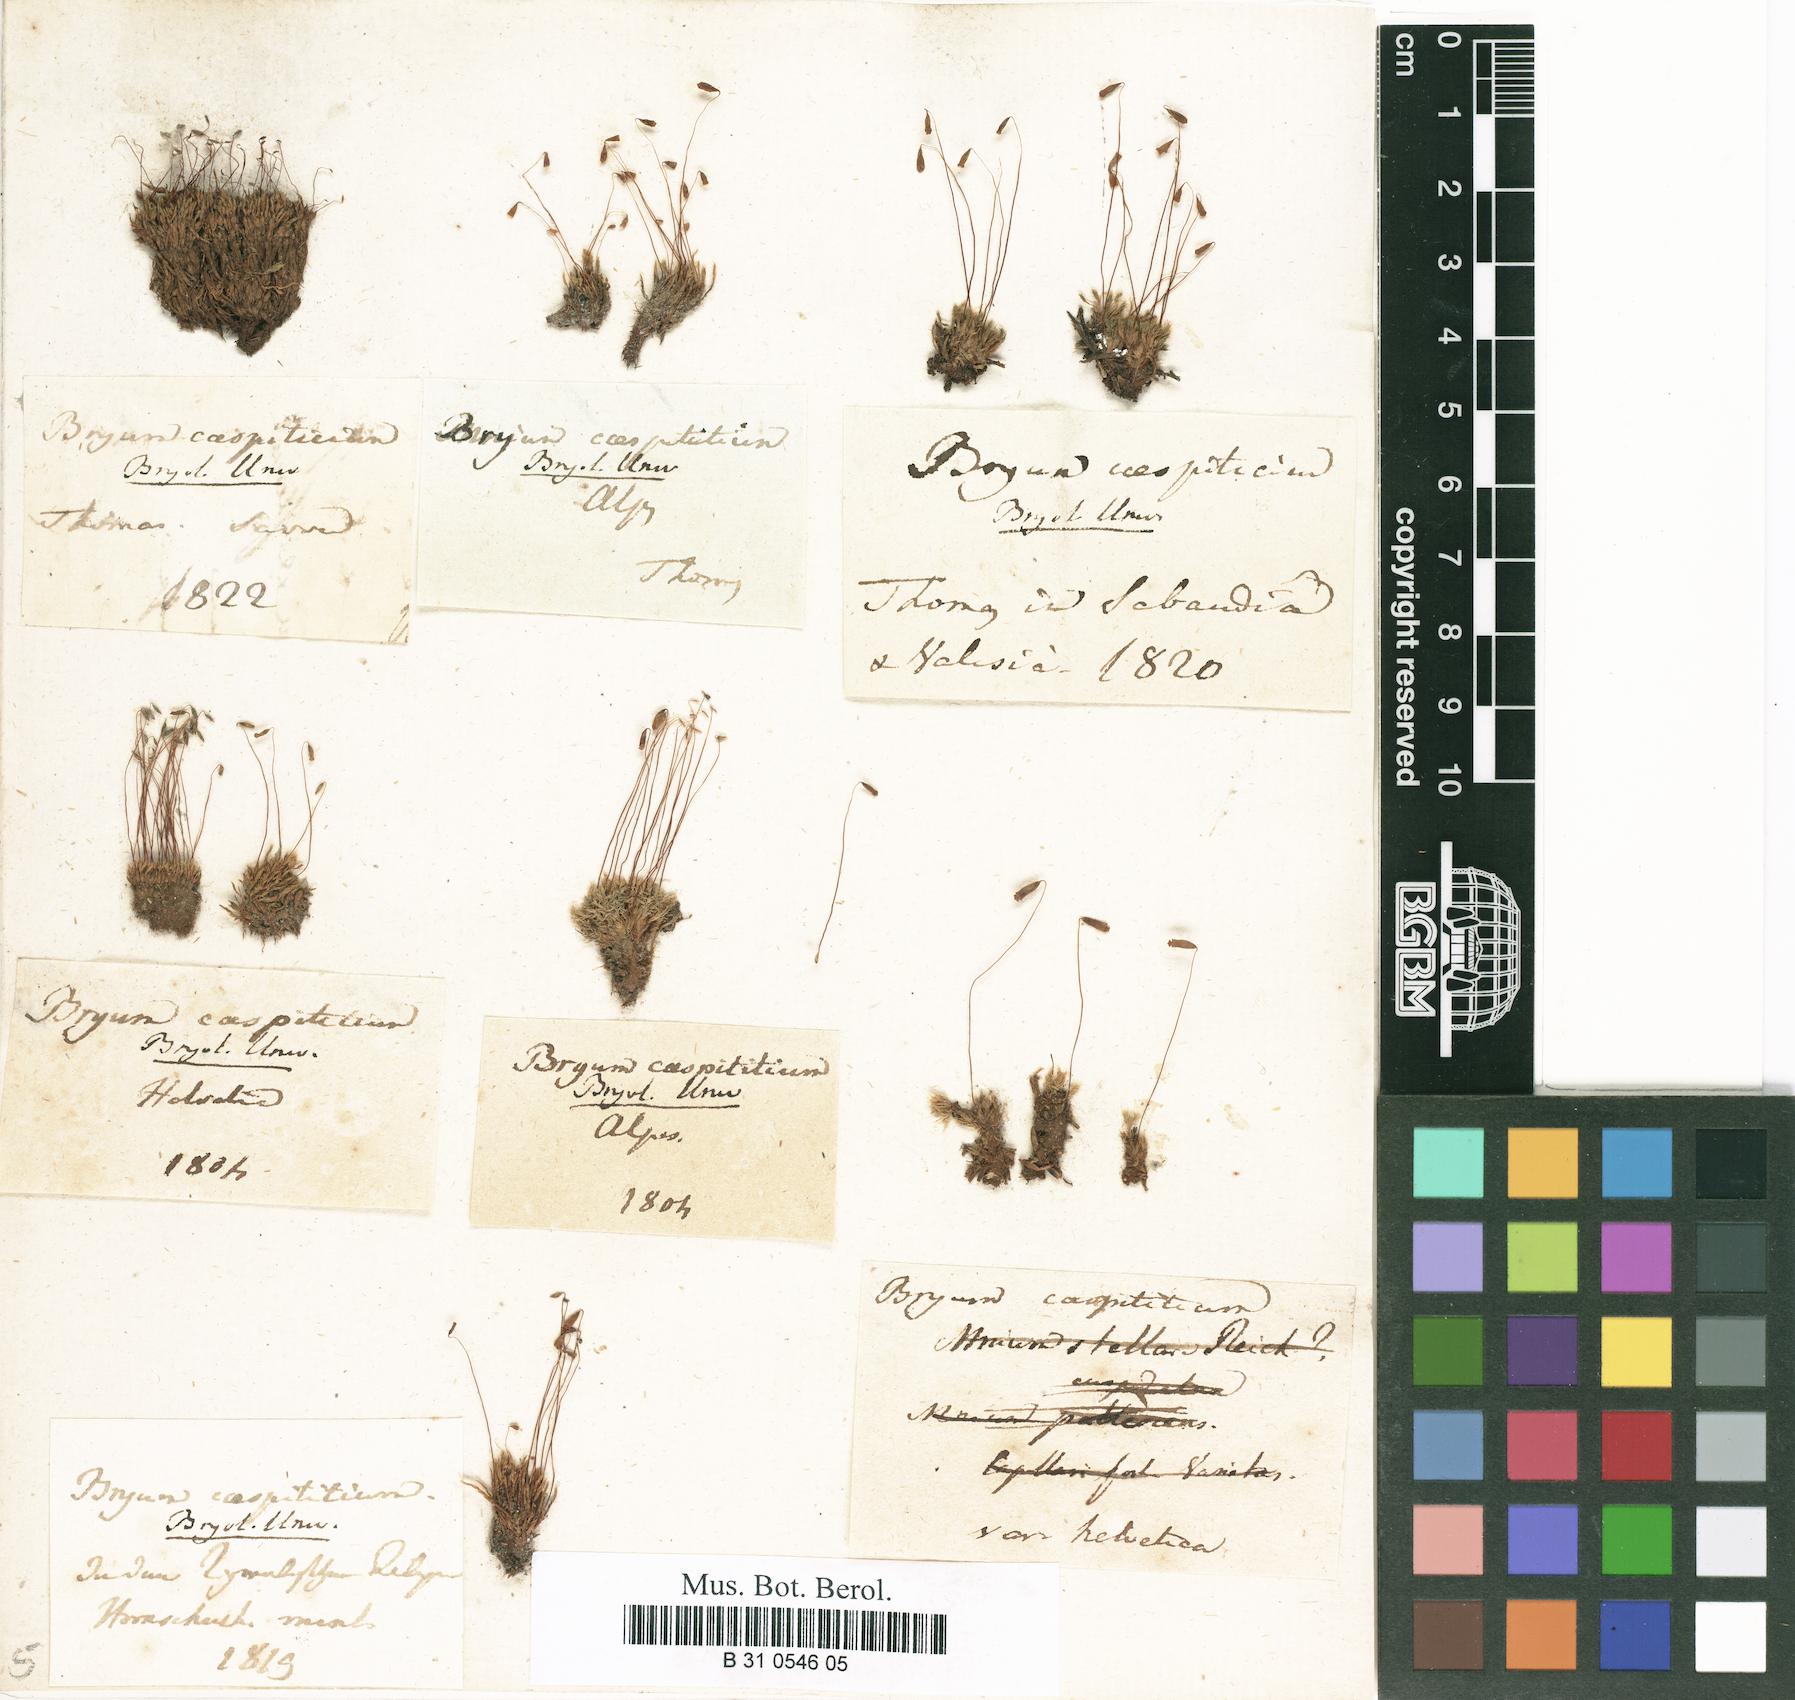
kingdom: Plantae
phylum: Bryophyta
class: Bryopsida
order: Bryales
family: Bryaceae
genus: Gemmabryum
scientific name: Gemmabryum caespiticium
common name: Handbell moss
